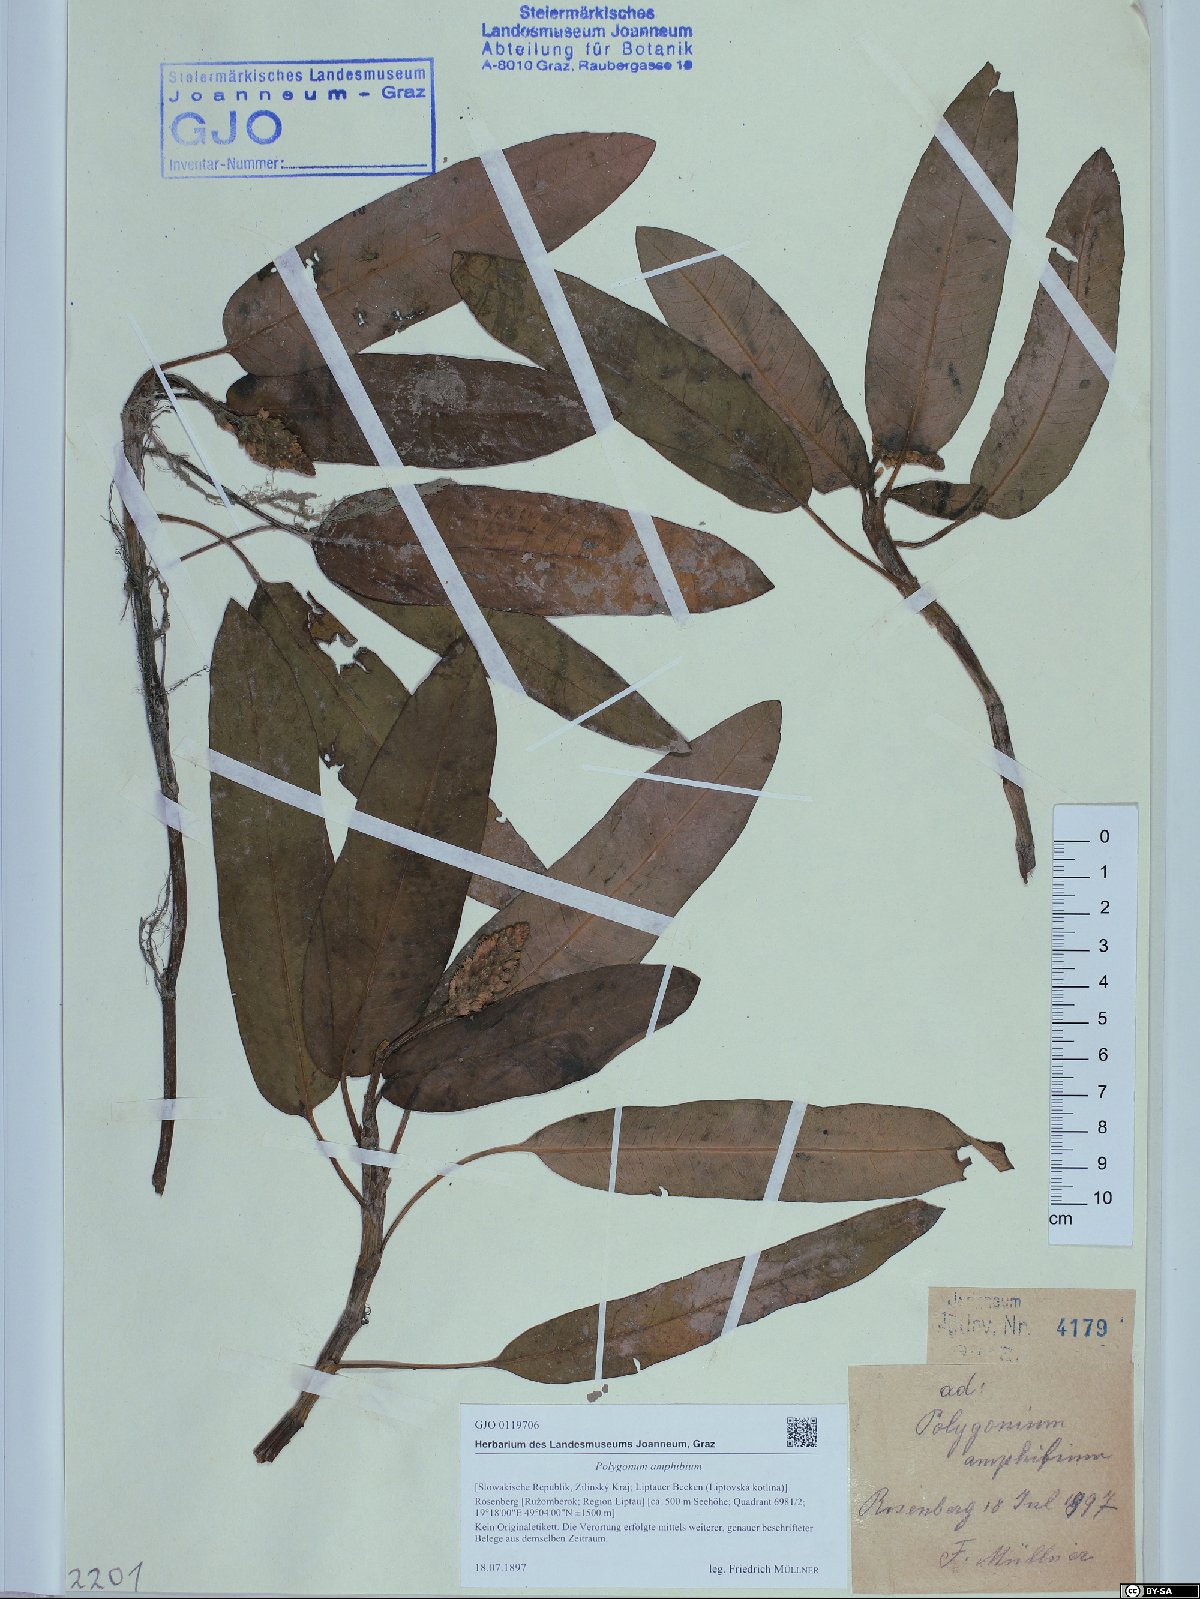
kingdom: Plantae
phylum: Tracheophyta
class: Magnoliopsida
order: Caryophyllales
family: Polygonaceae
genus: Persicaria
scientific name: Persicaria amphibia
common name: Amphibious bistort
